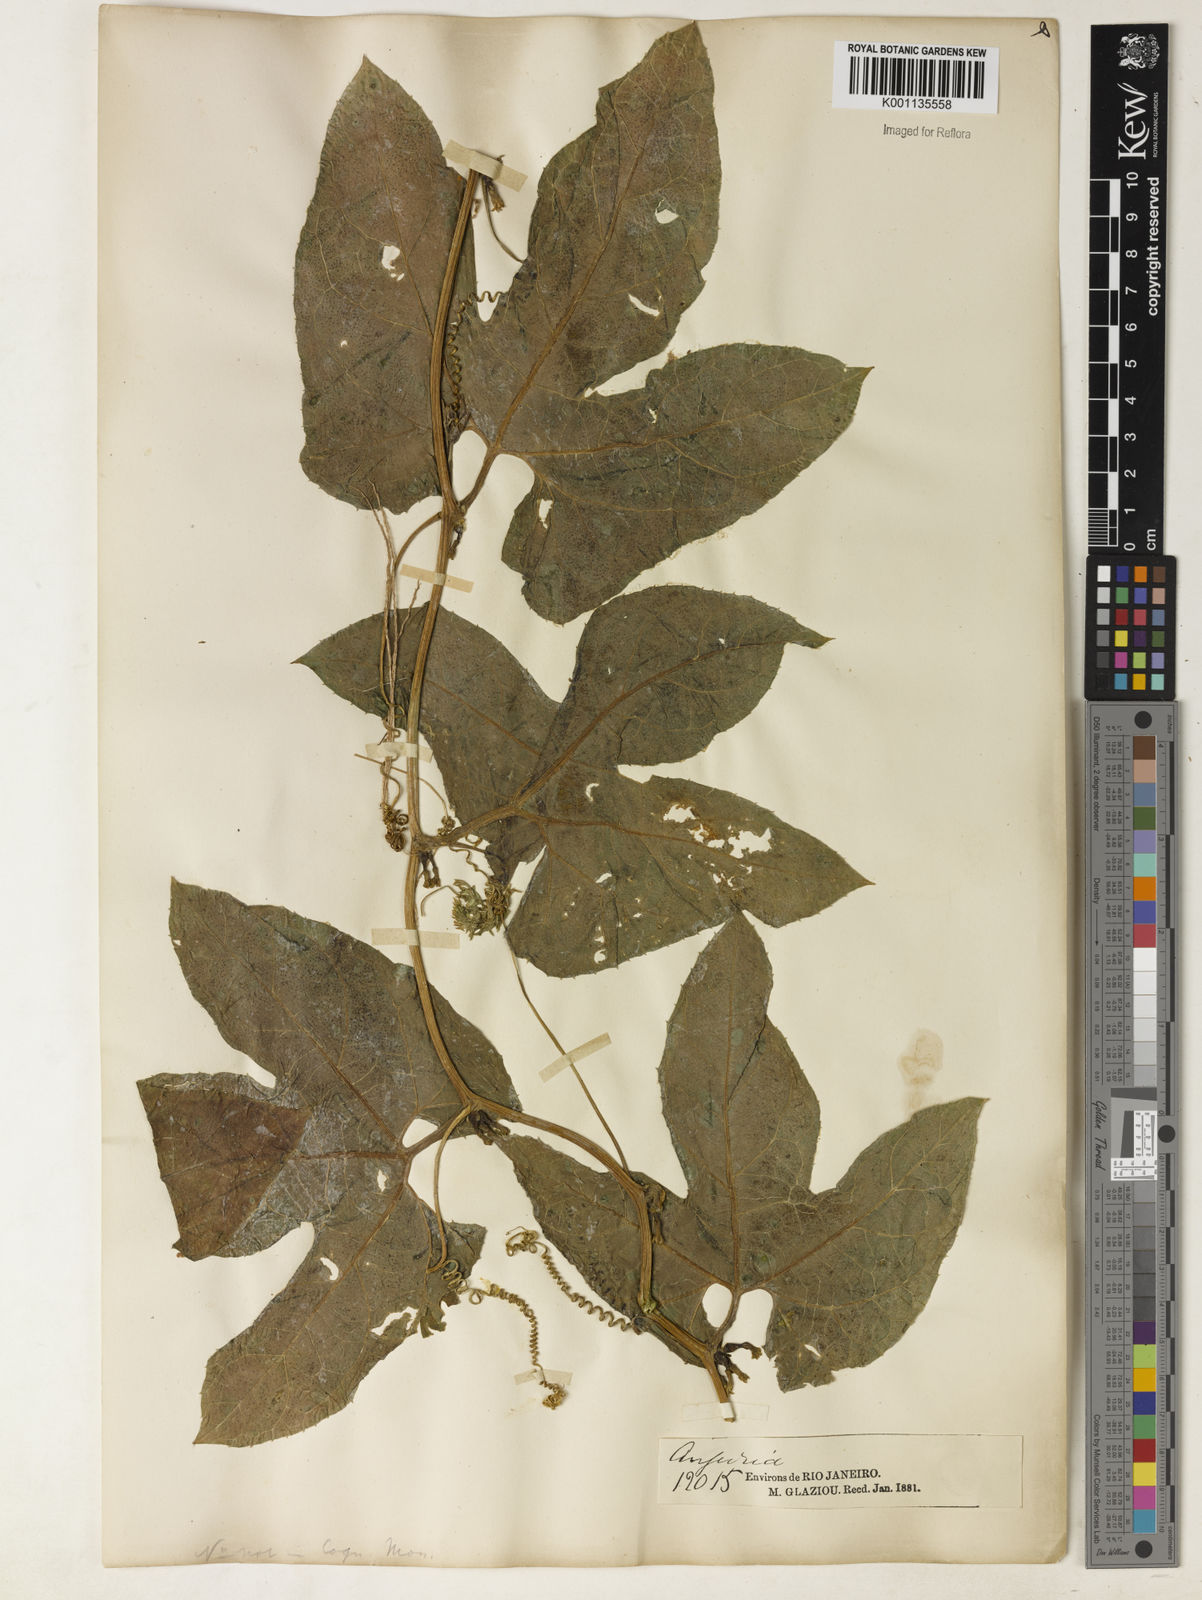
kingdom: Plantae
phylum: Tracheophyta
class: Magnoliopsida
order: Cucurbitales
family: Cucurbitaceae
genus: Wilbrandia
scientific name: Wilbrandia verticillata
